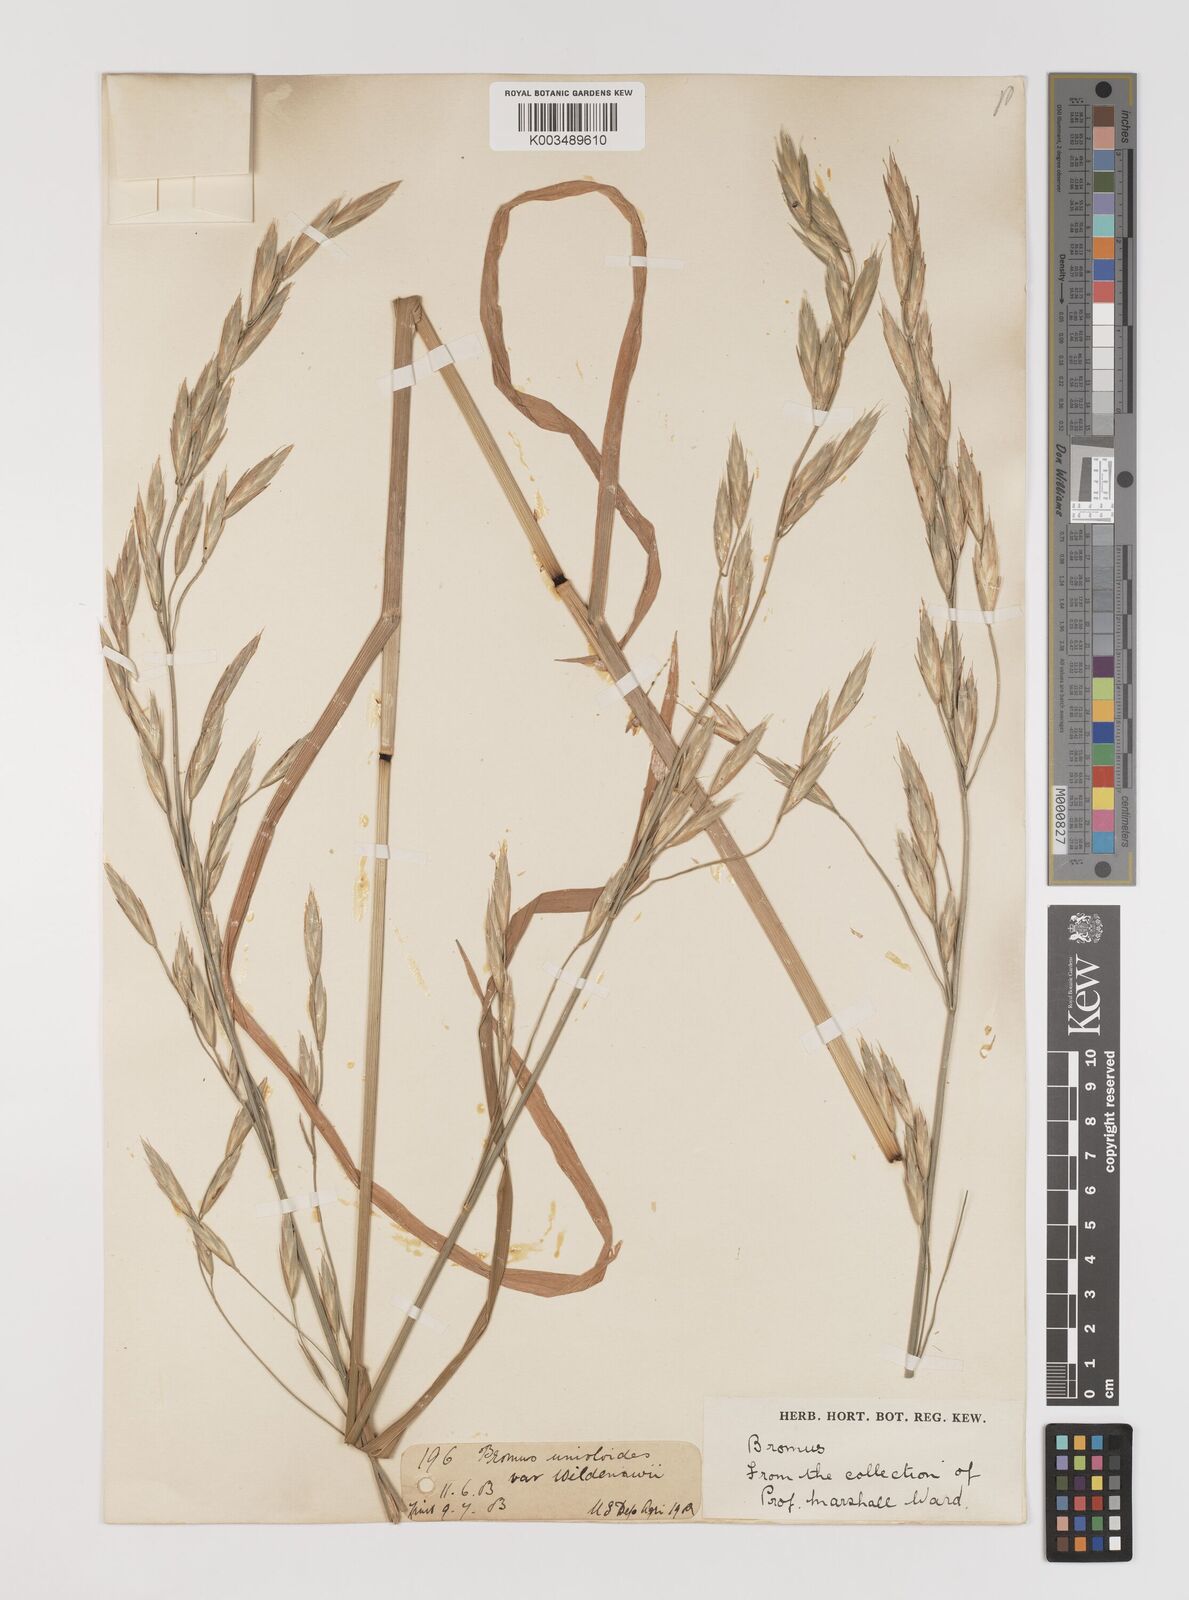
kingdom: Plantae
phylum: Tracheophyta
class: Liliopsida
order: Poales
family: Poaceae
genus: Bromus
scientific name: Bromus catharticus
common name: Rescuegrass
